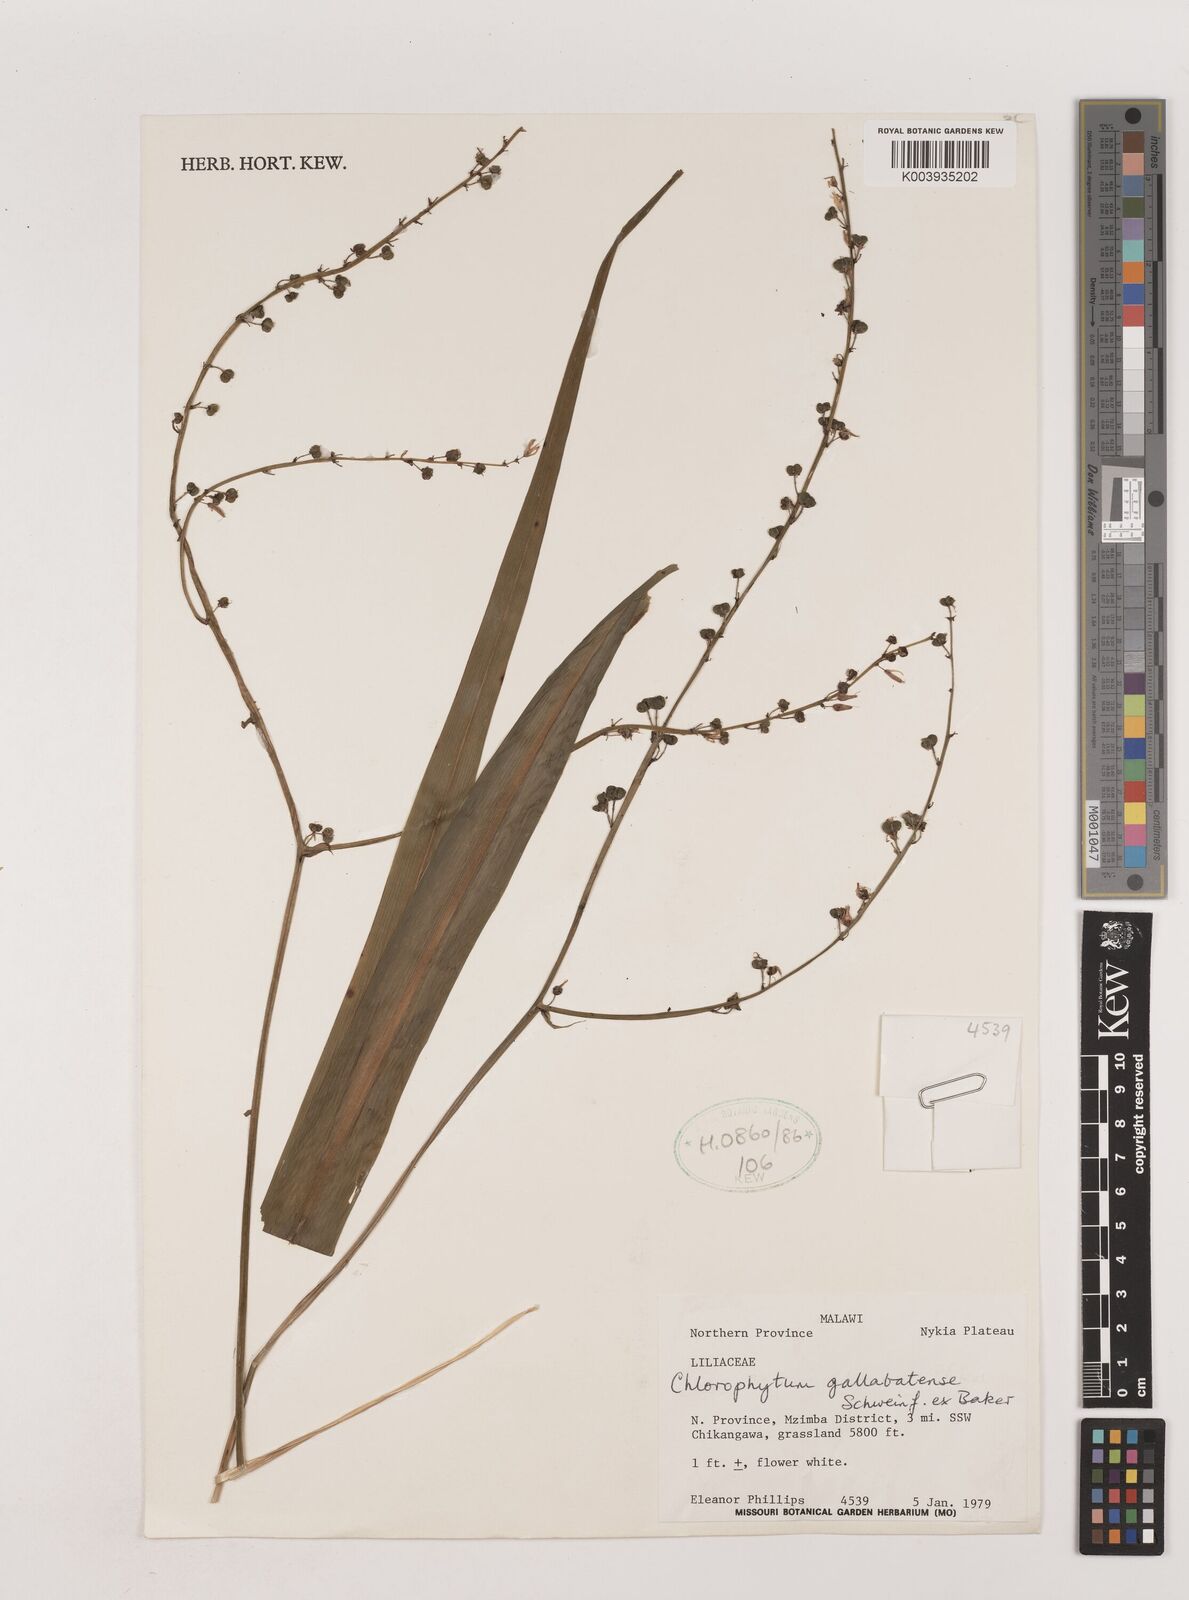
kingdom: Plantae
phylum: Tracheophyta
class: Liliopsida
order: Asparagales
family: Asparagaceae
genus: Chlorophytum
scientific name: Chlorophytum gallabatense
